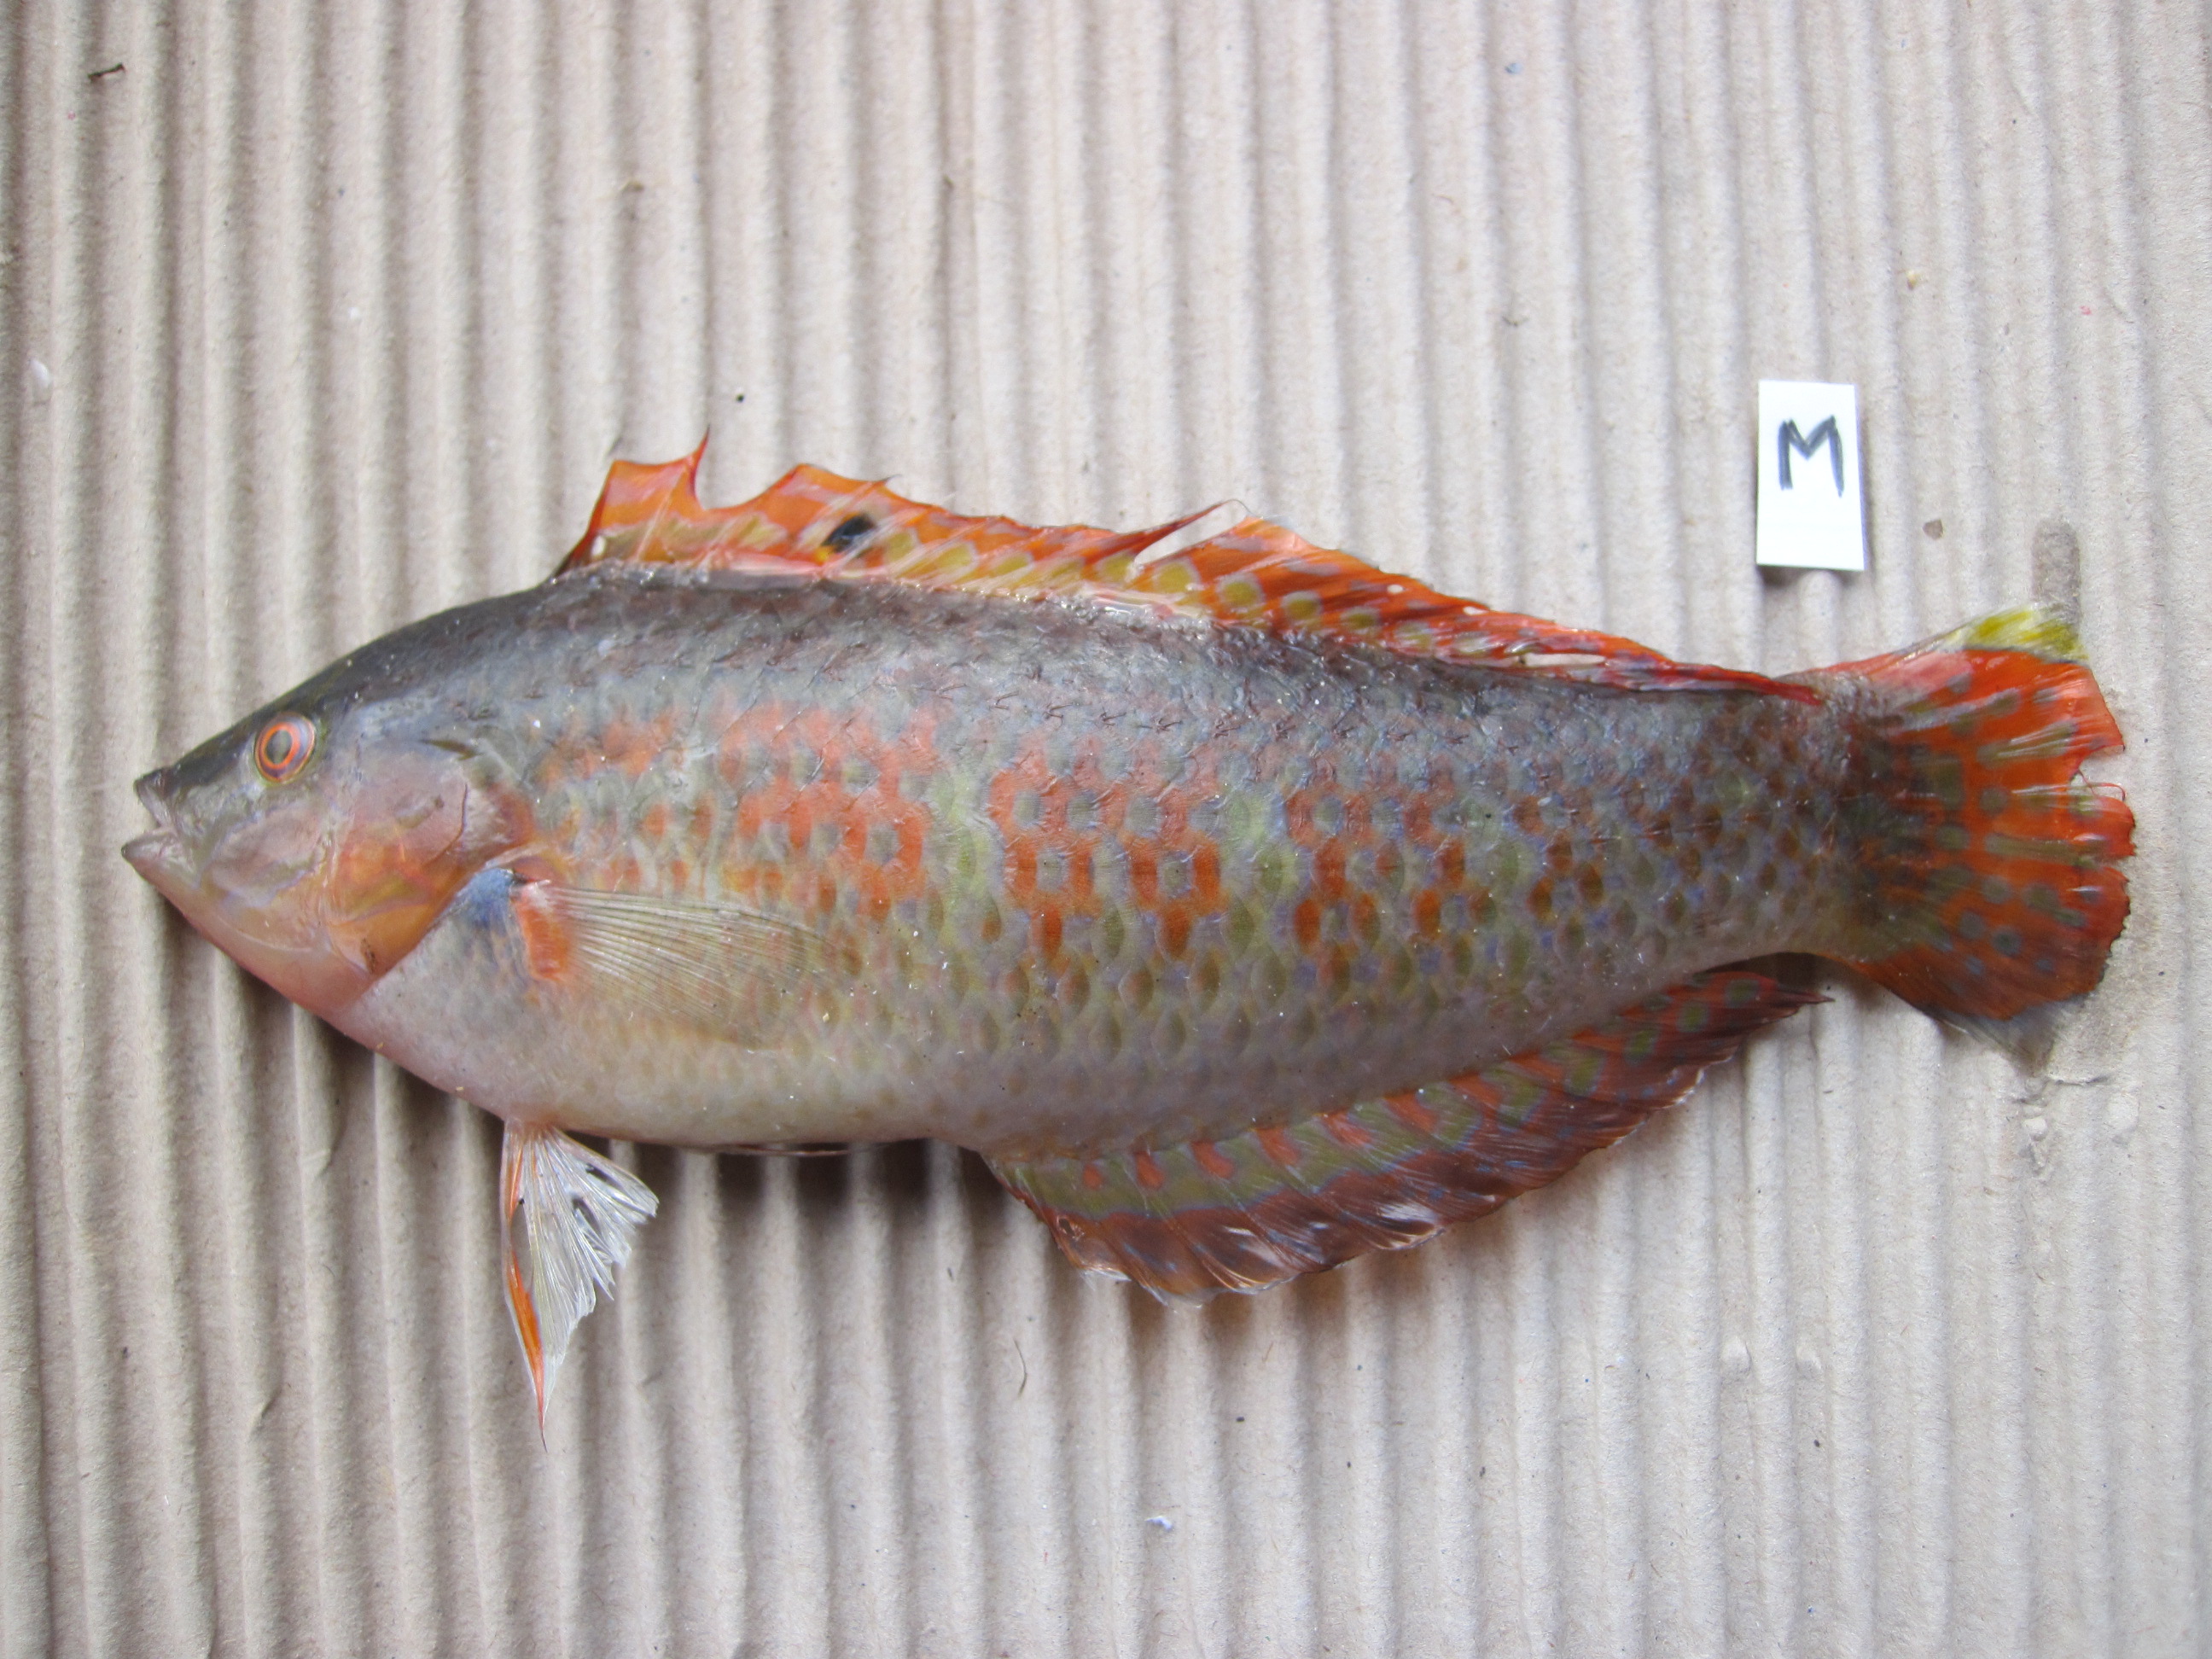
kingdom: Animalia
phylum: Chordata
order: Perciformes
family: Labridae
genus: Halichoeres
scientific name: Halichoeres nigrescens
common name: Bubblefin wrasse
